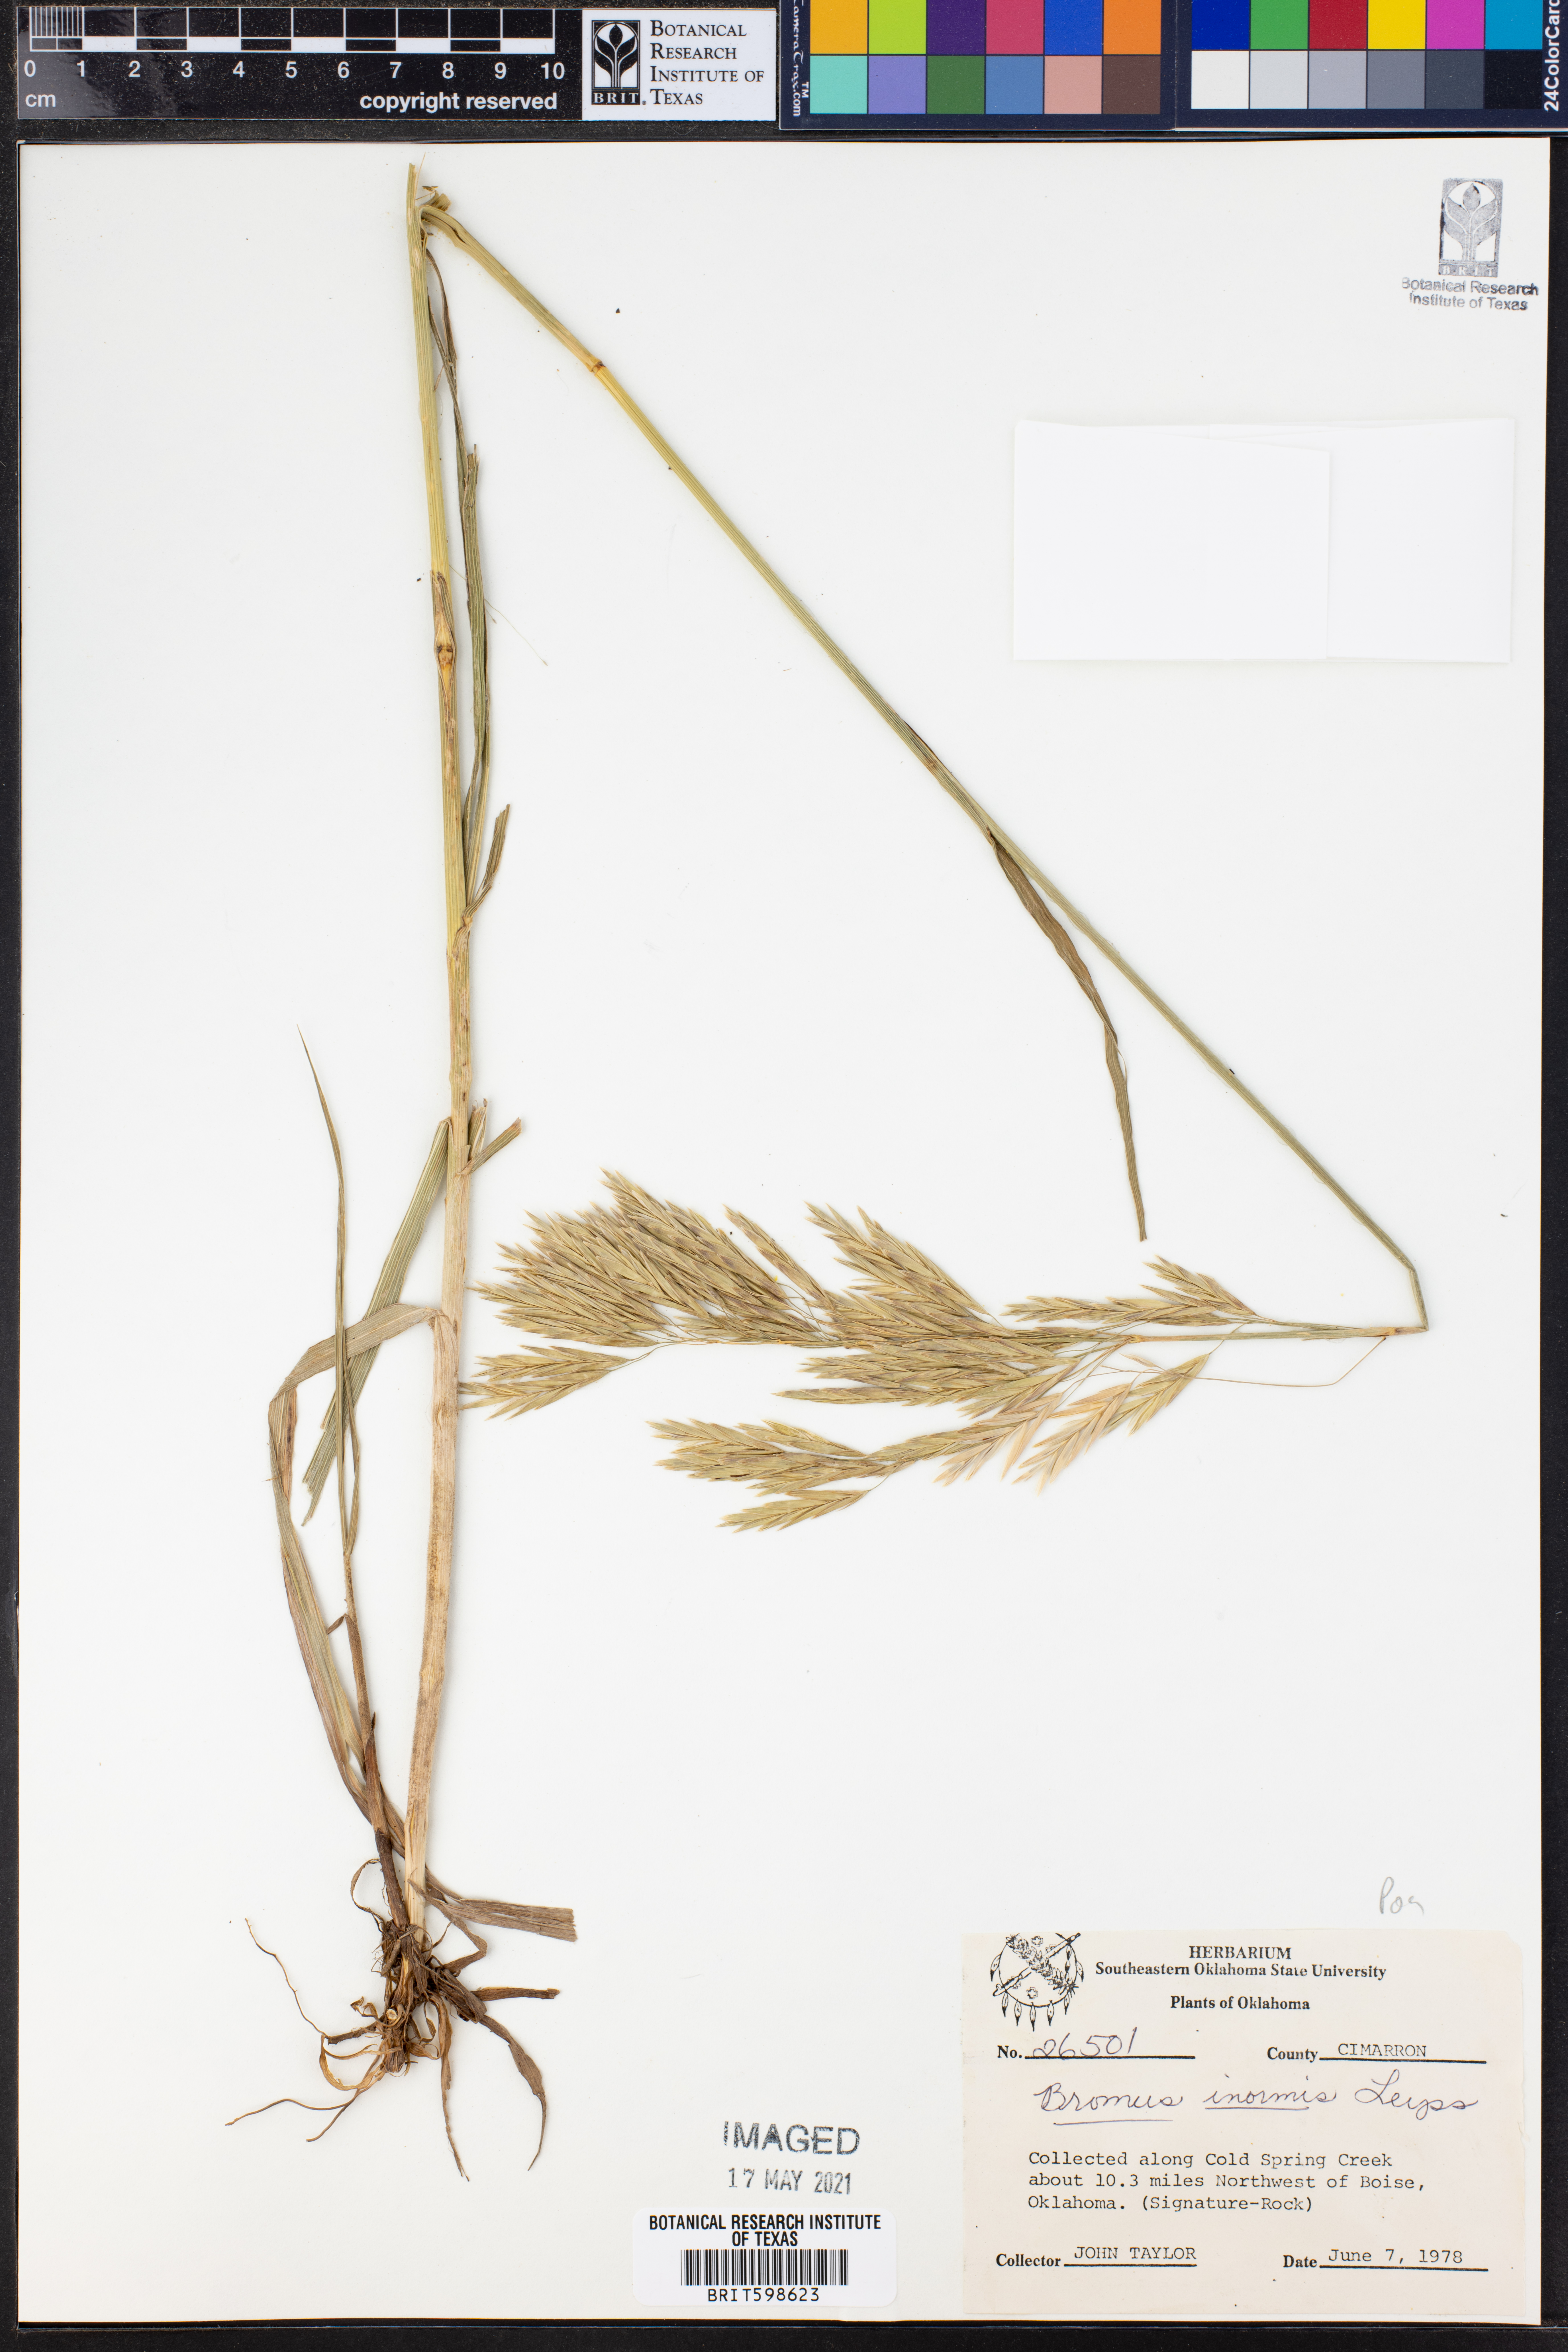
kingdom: Plantae
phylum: Tracheophyta
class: Liliopsida
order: Poales
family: Poaceae
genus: Bromus
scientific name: Bromus inermis
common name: Smooth brome
